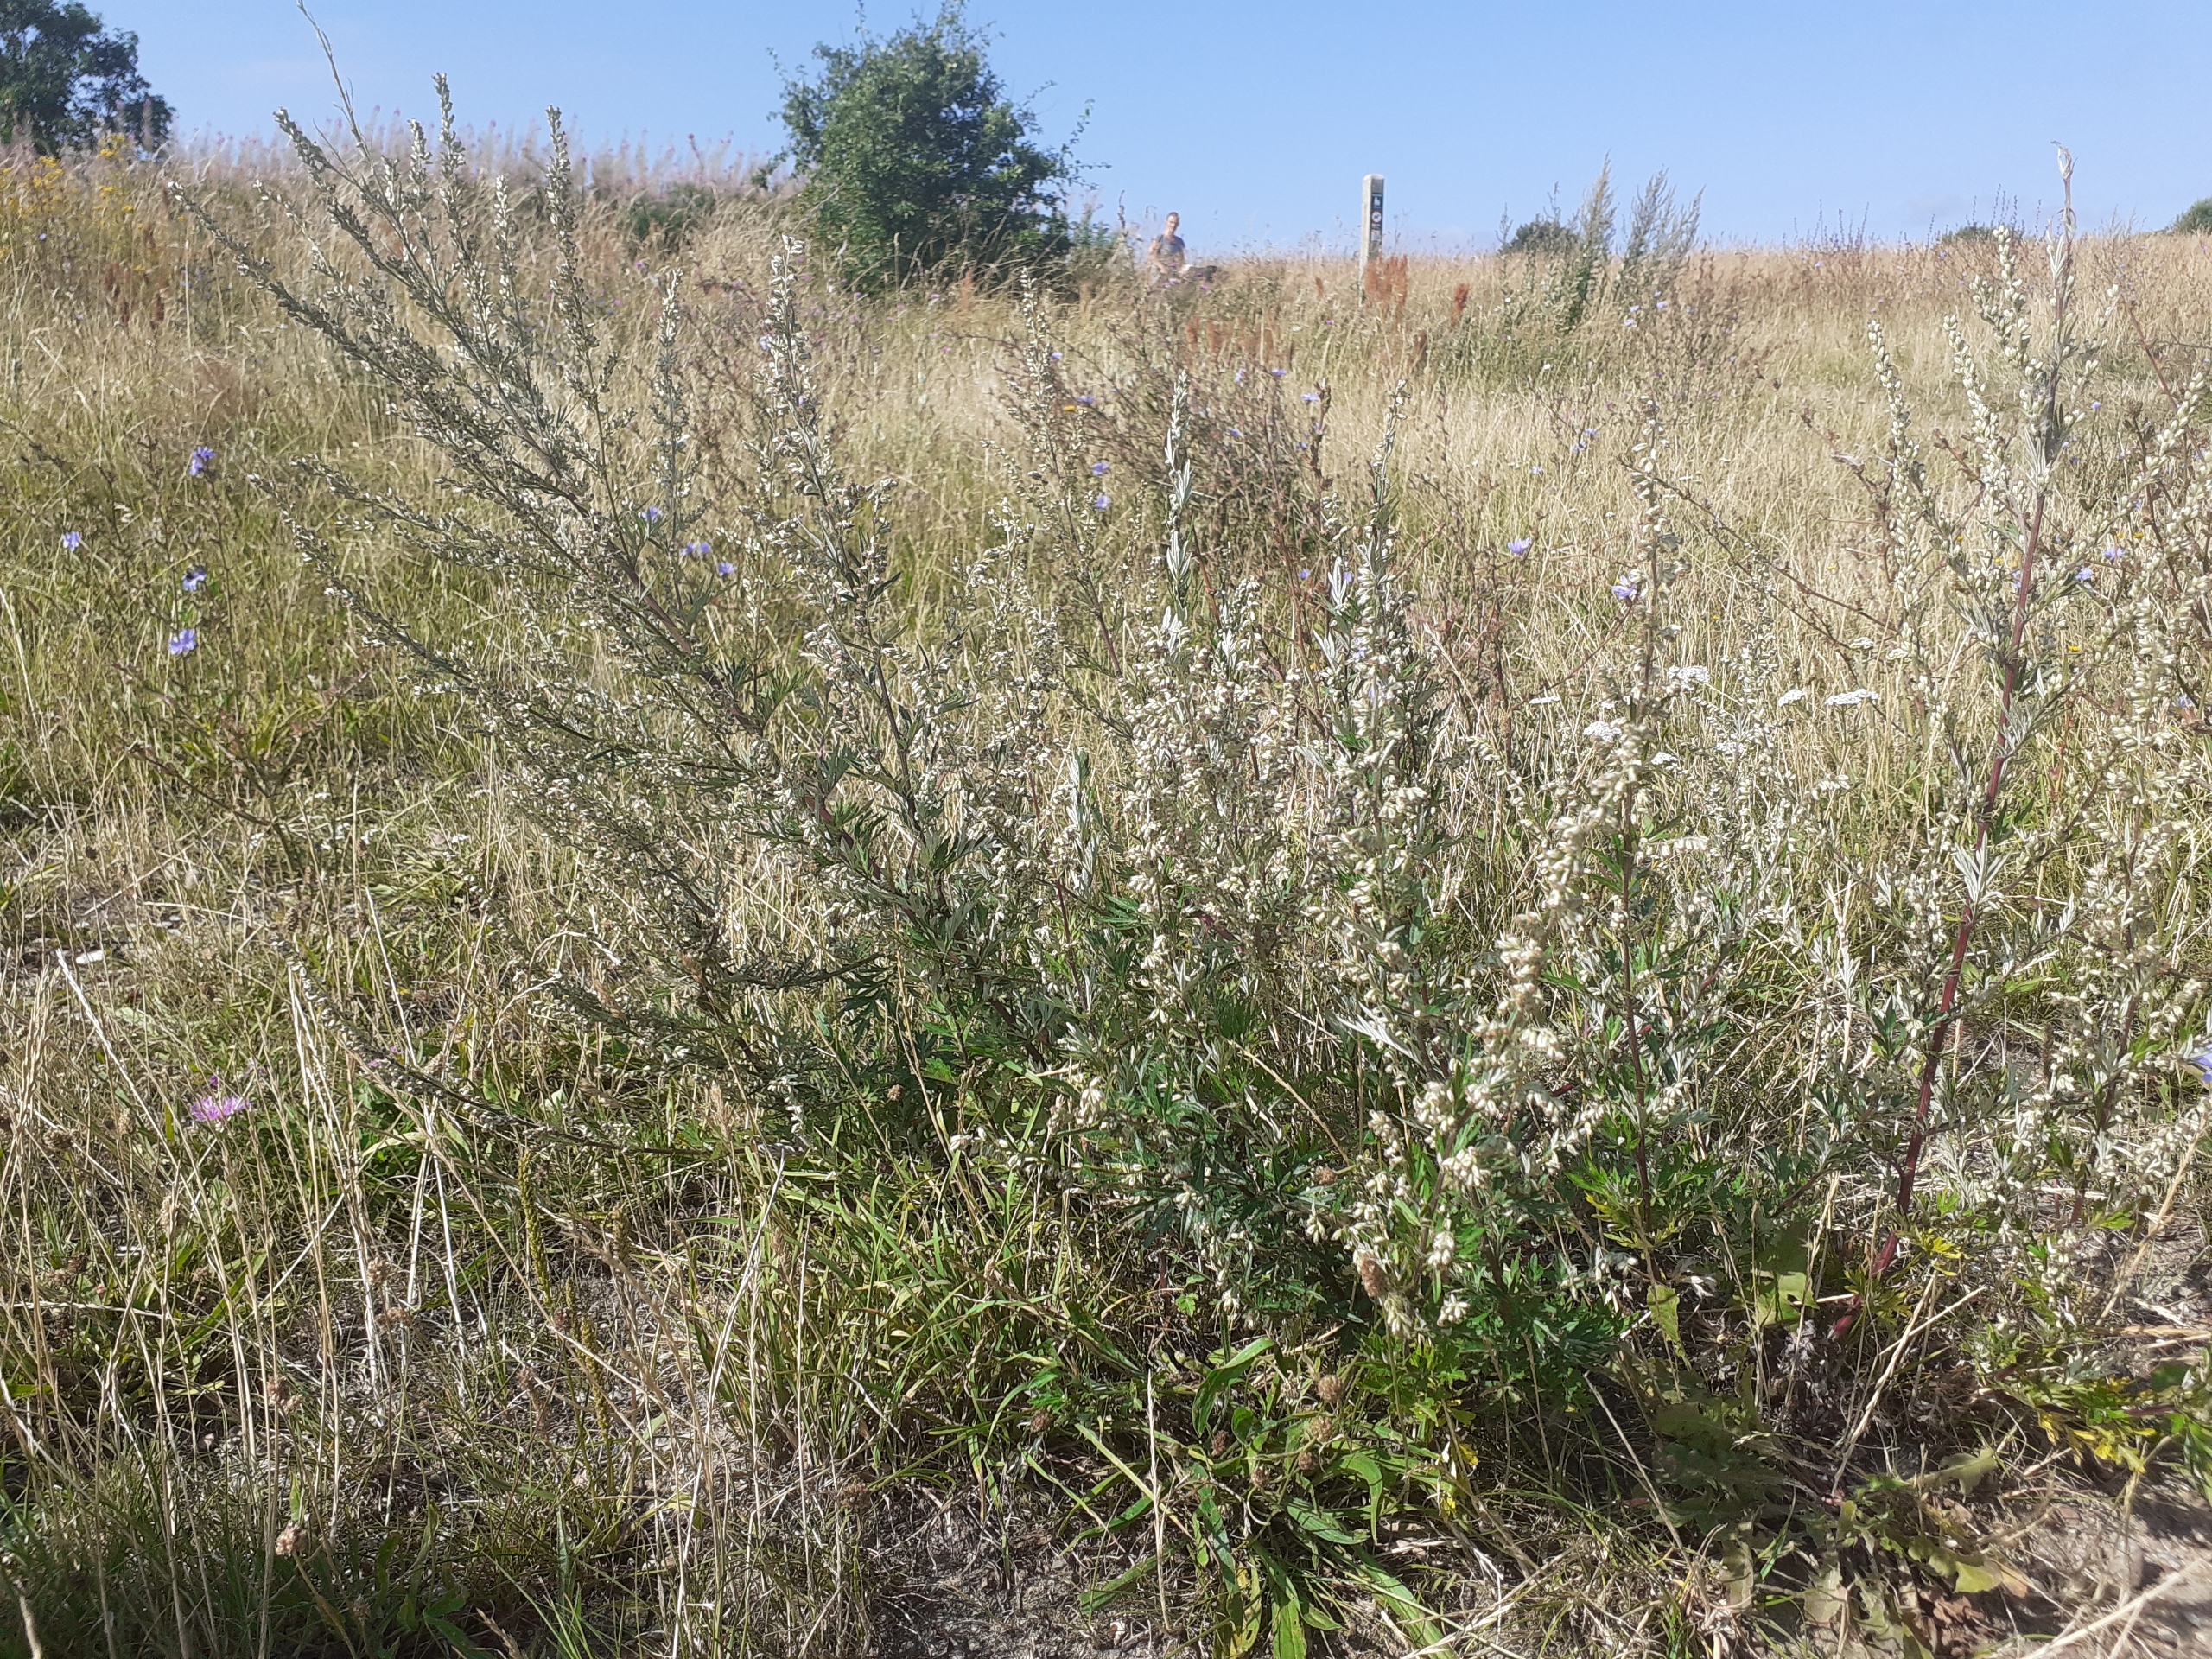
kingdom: Plantae
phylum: Tracheophyta
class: Magnoliopsida
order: Asterales
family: Asteraceae
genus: Artemisia
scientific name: Artemisia vulgaris
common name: Grå-bynke
